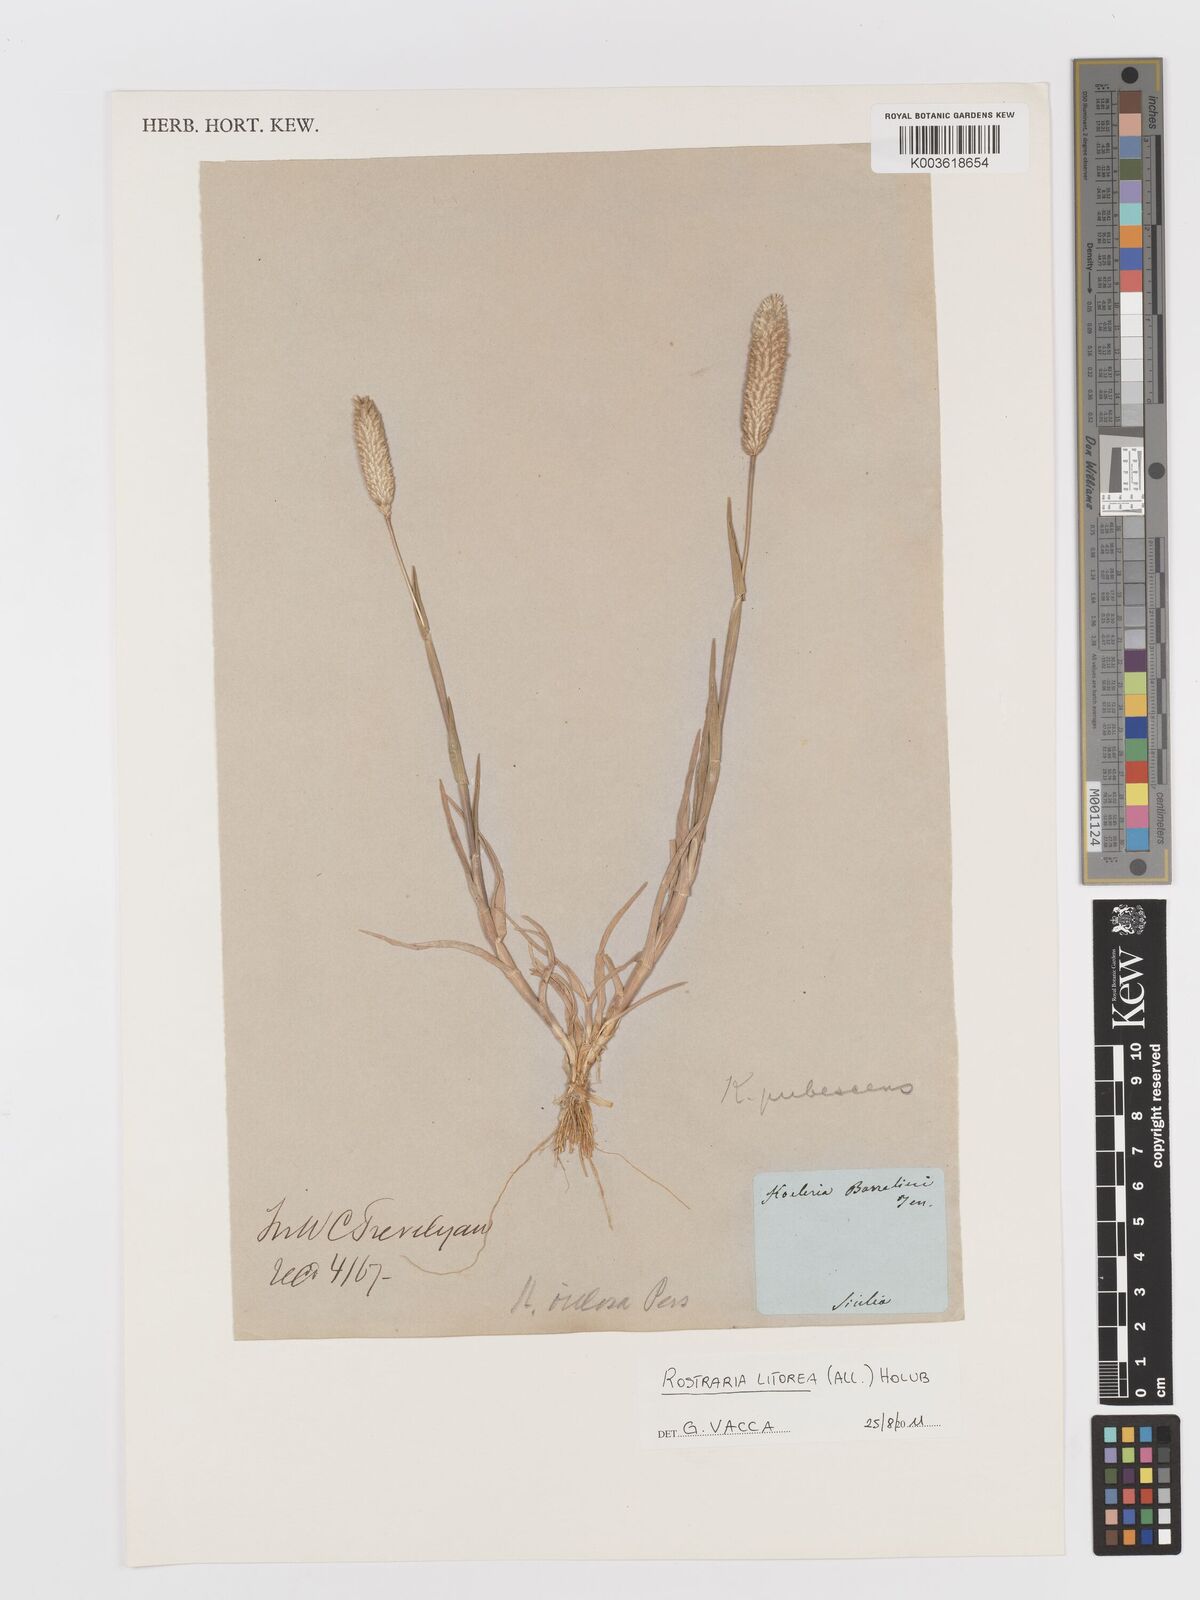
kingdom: Plantae
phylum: Tracheophyta
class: Liliopsida
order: Poales
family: Poaceae
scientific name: Poaceae
